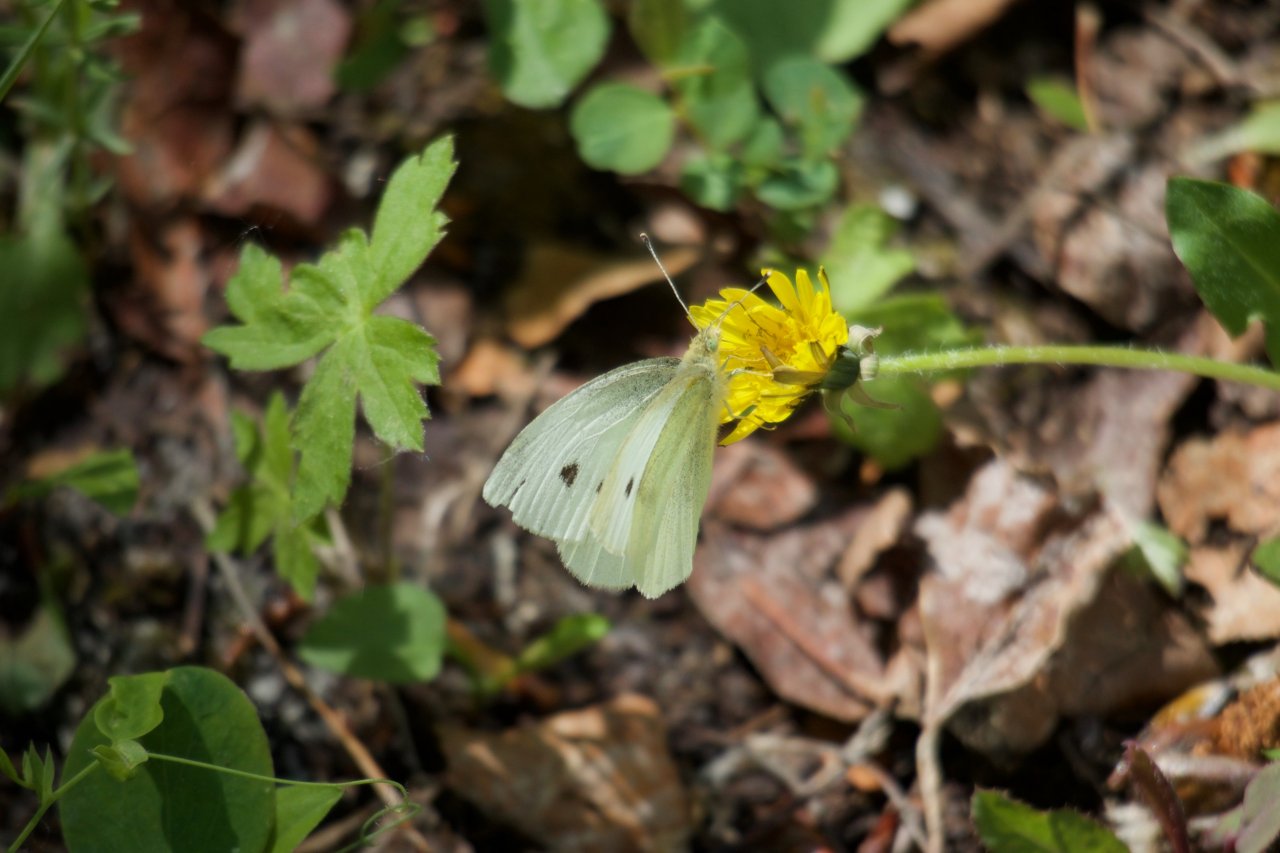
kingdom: Animalia
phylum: Arthropoda
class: Insecta
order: Lepidoptera
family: Pieridae
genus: Pieris
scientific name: Pieris rapae
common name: Cabbage White
